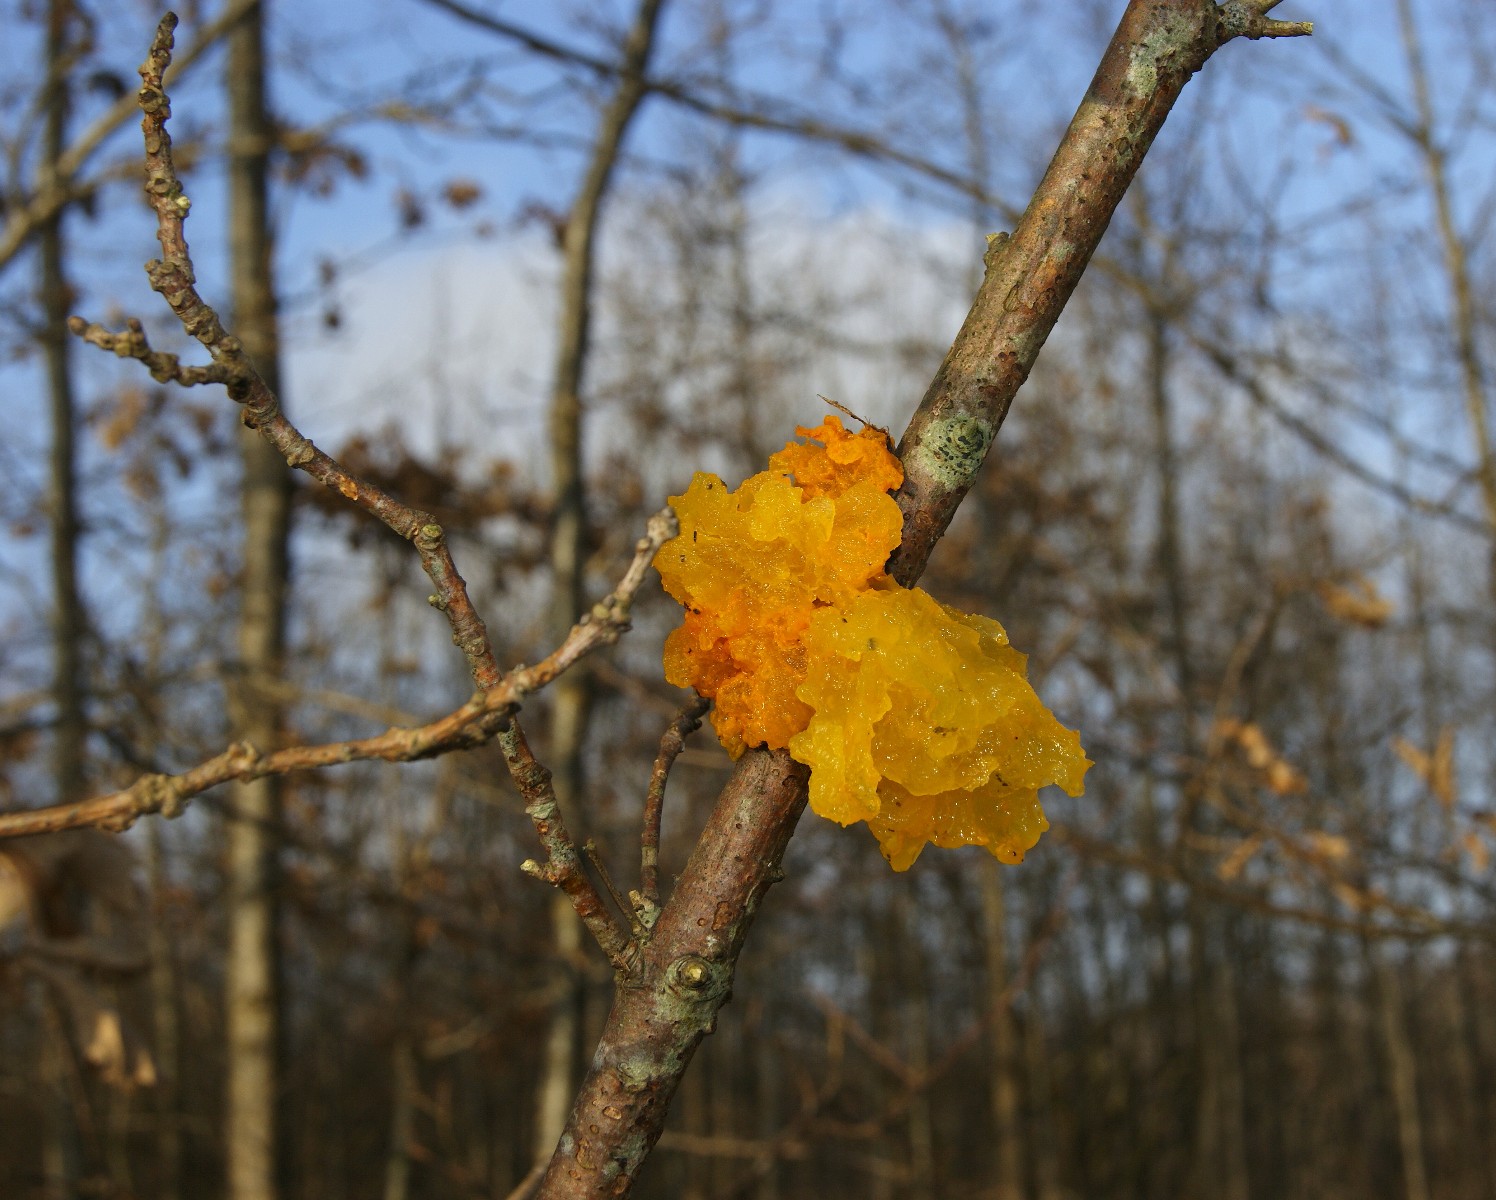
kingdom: Fungi
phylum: Basidiomycota
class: Tremellomycetes
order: Tremellales
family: Tremellaceae
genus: Tremella
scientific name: Tremella mesenterica
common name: gul bævresvamp
